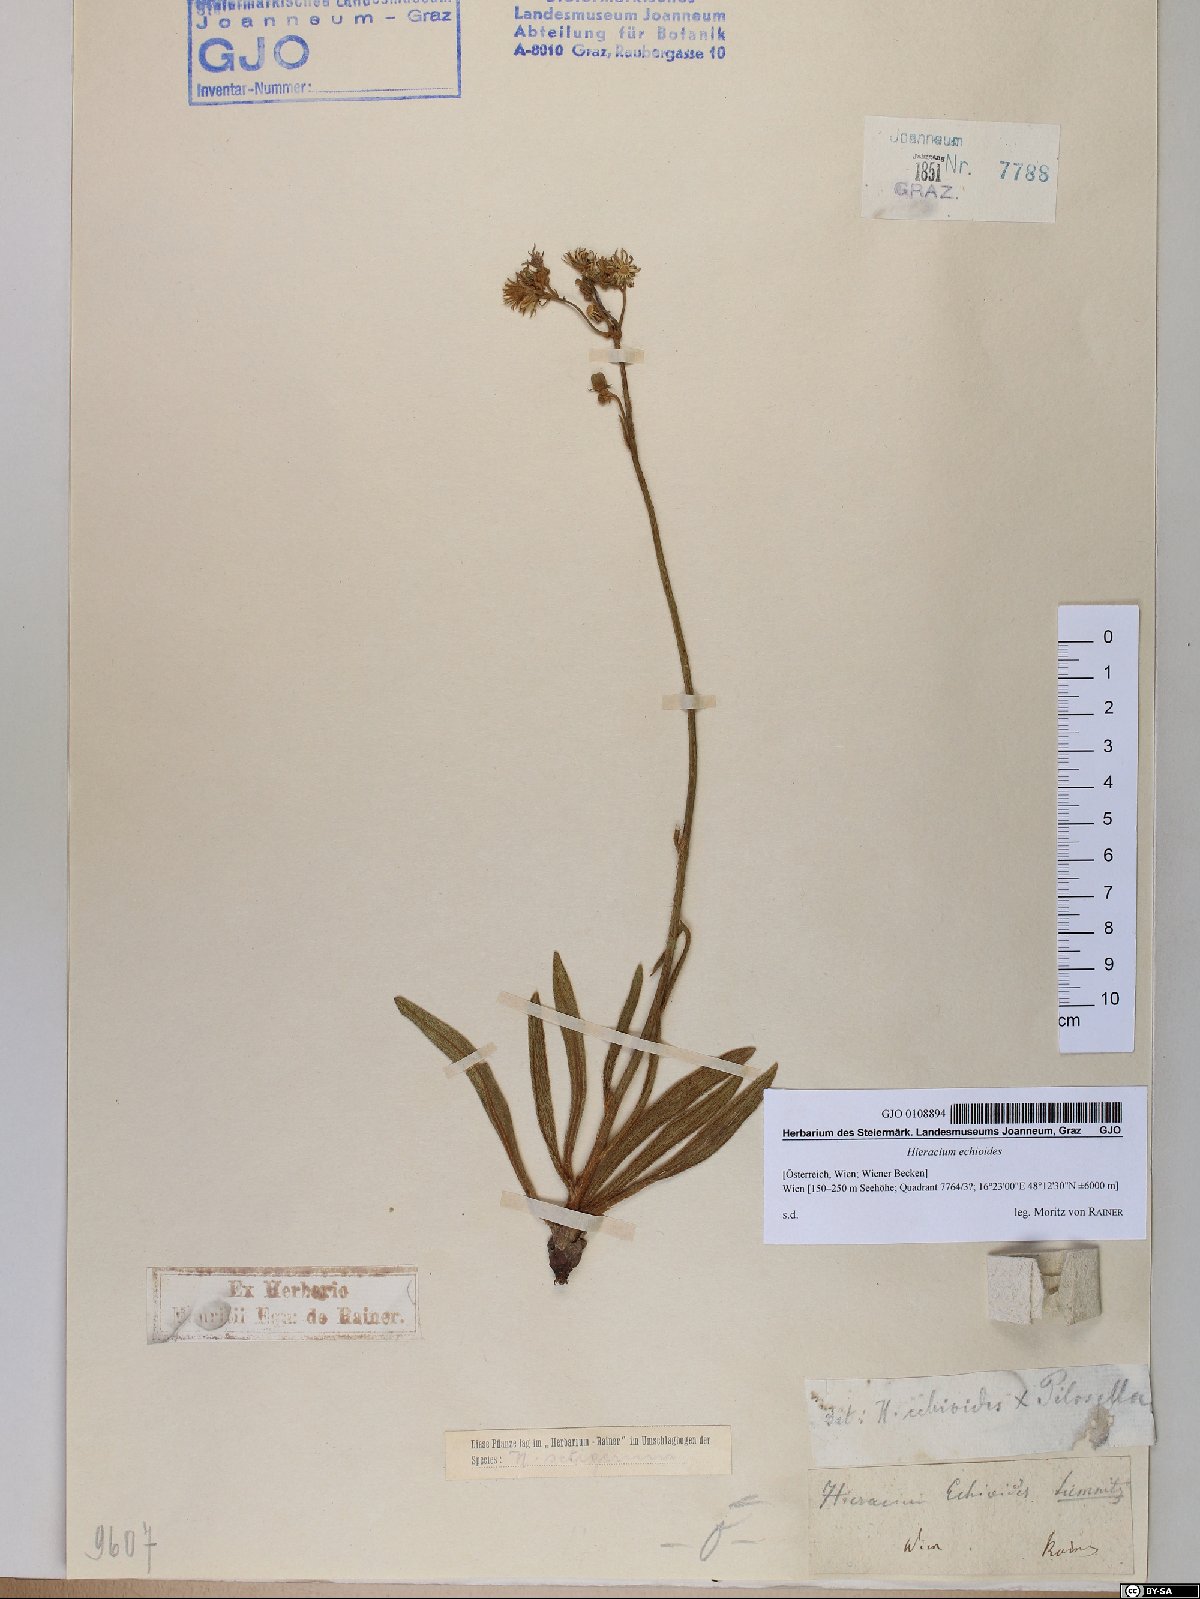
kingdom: Plantae
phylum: Tracheophyta
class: Magnoliopsida
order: Asterales
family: Asteraceae
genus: Pilosella
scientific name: Pilosella echioides
